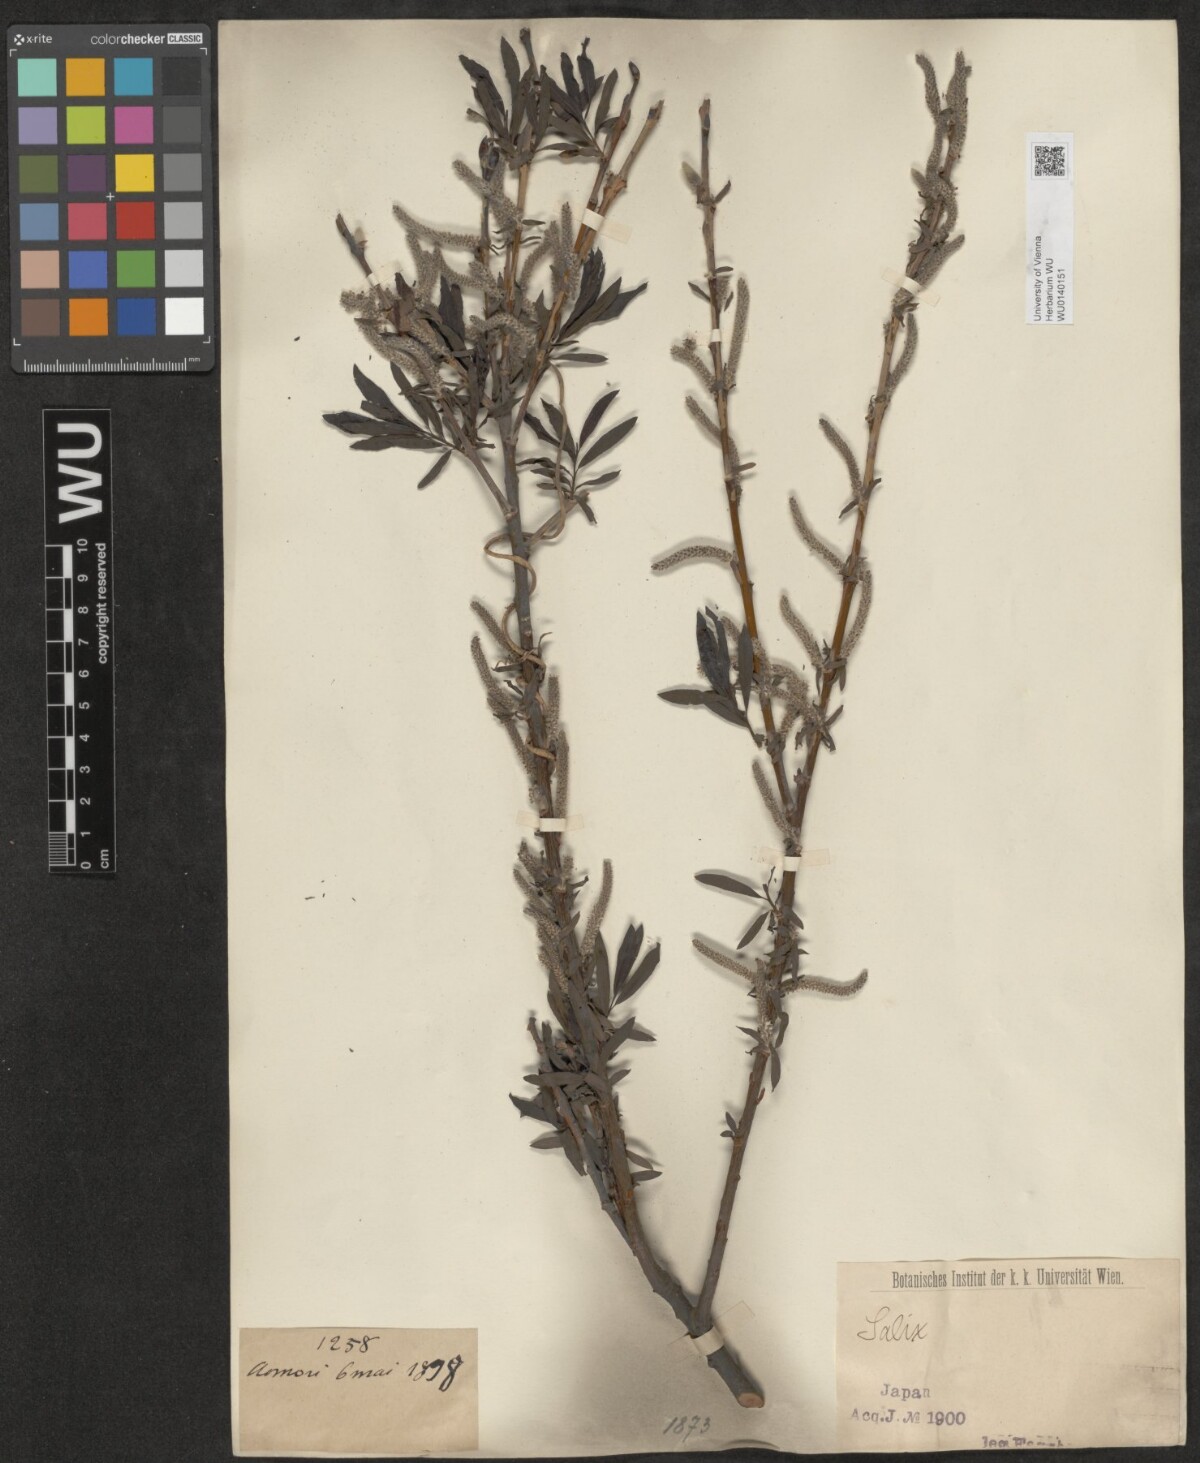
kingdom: Plantae
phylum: Tracheophyta
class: Magnoliopsida
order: Malpighiales
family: Salicaceae
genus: Salix
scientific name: Salix
